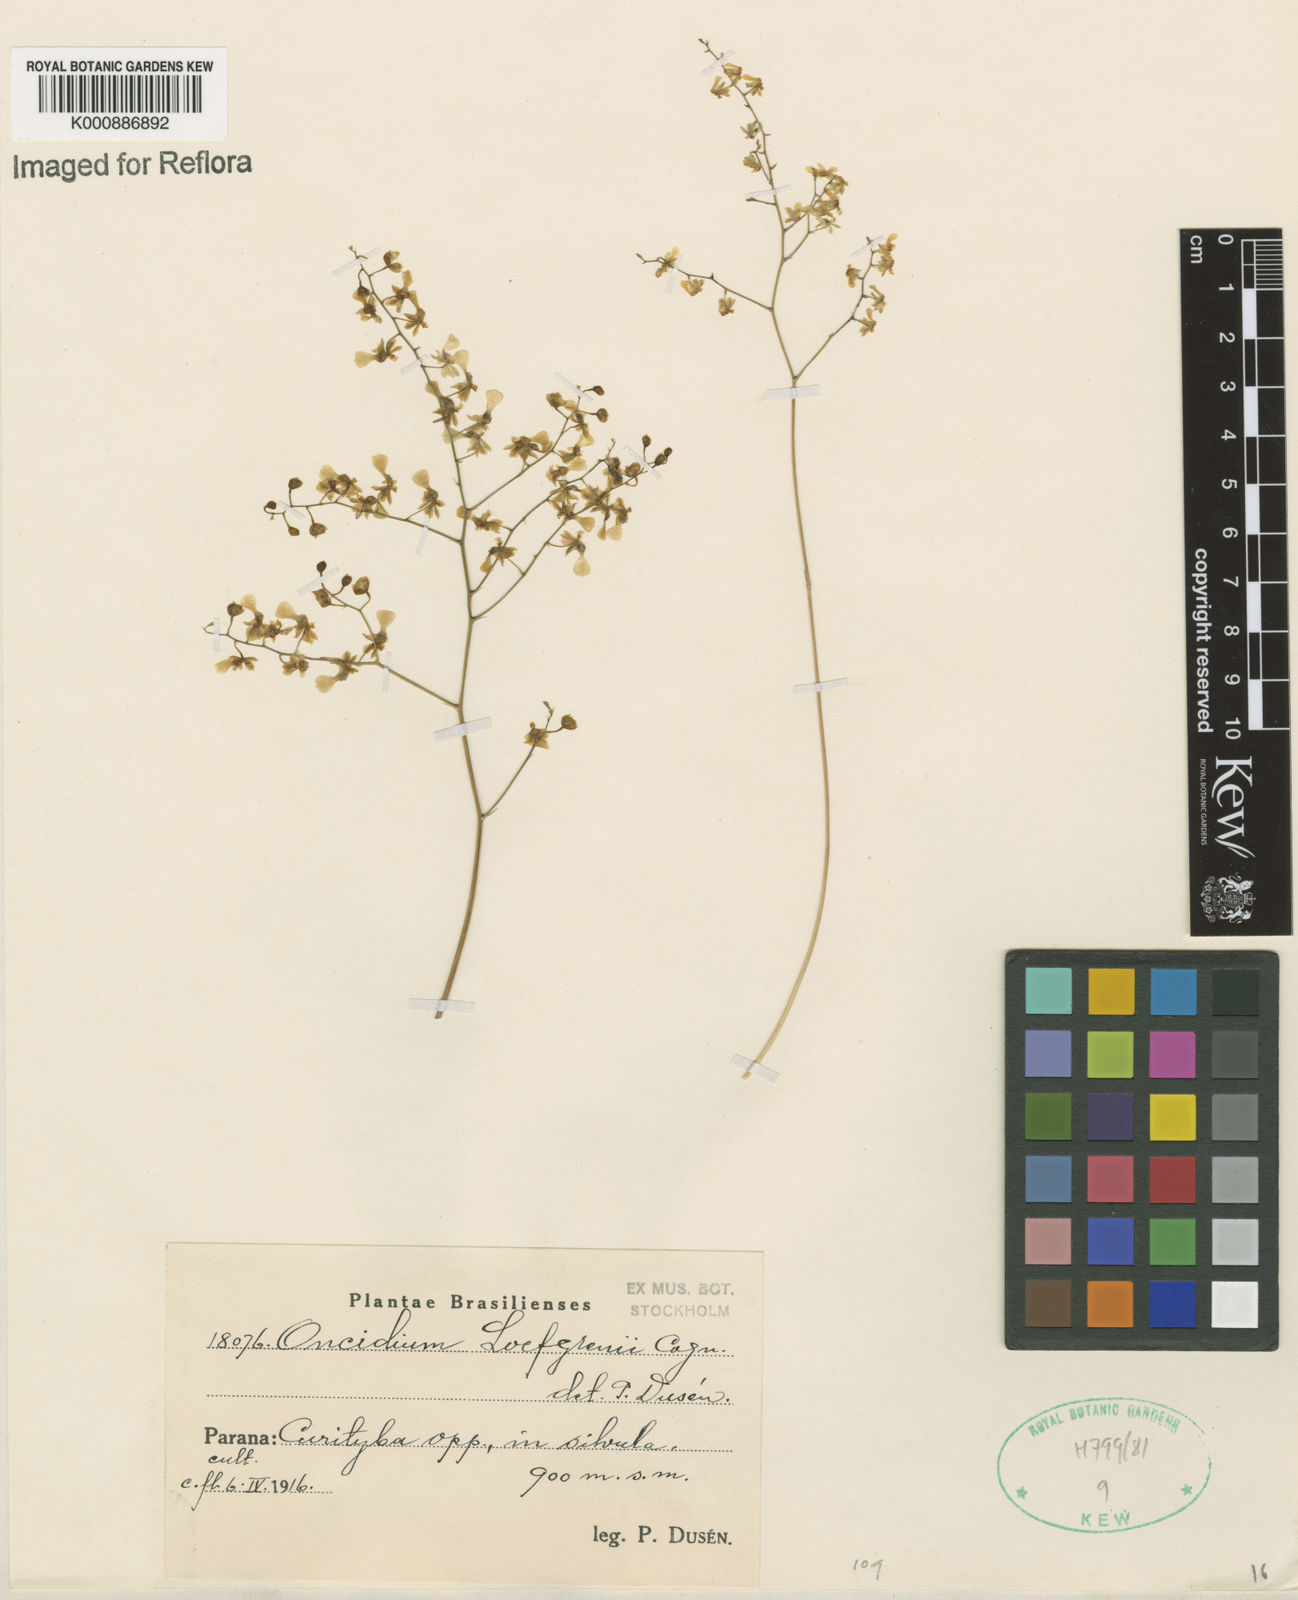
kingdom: Plantae
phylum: Tracheophyta
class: Liliopsida
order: Asparagales
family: Orchidaceae
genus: Gomesa
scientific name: Gomesa ranifera
